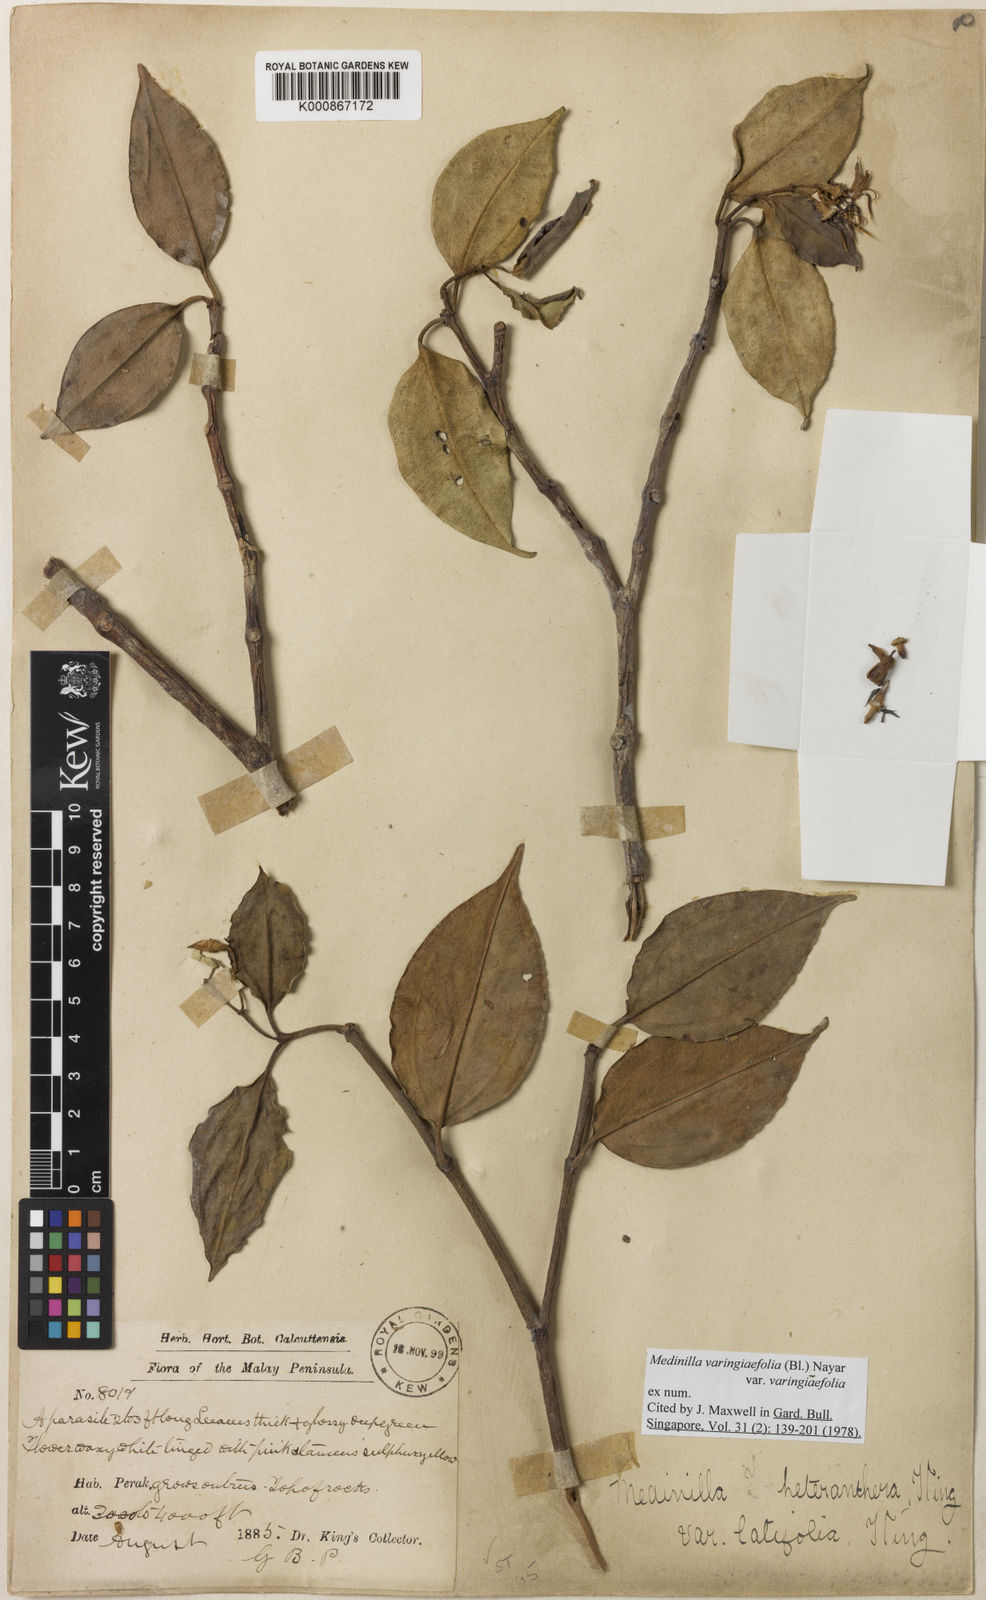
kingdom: Plantae
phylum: Tracheophyta
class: Magnoliopsida
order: Myrtales
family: Melastomataceae
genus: Pachycentria
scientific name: Pachycentria varingiaefolia
